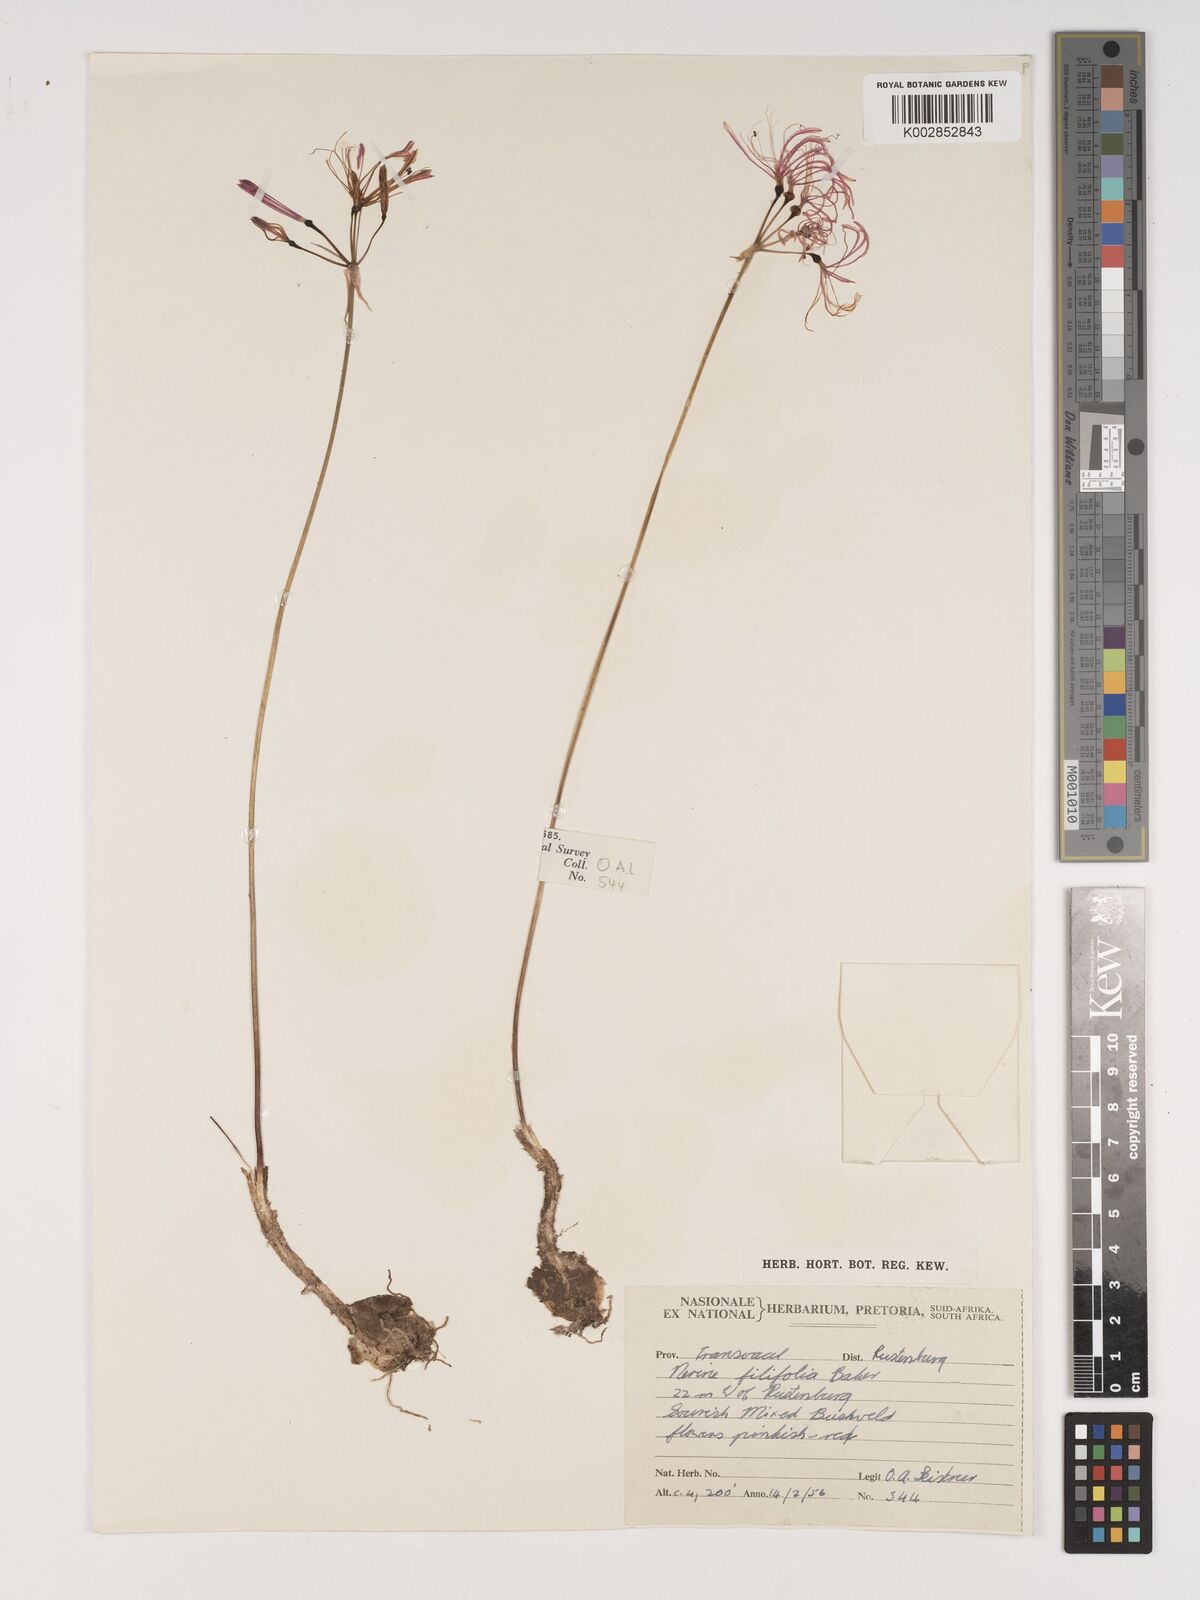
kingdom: Plantae
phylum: Tracheophyta
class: Liliopsida
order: Asparagales
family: Amaryllidaceae
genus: Nerine
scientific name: Nerine
